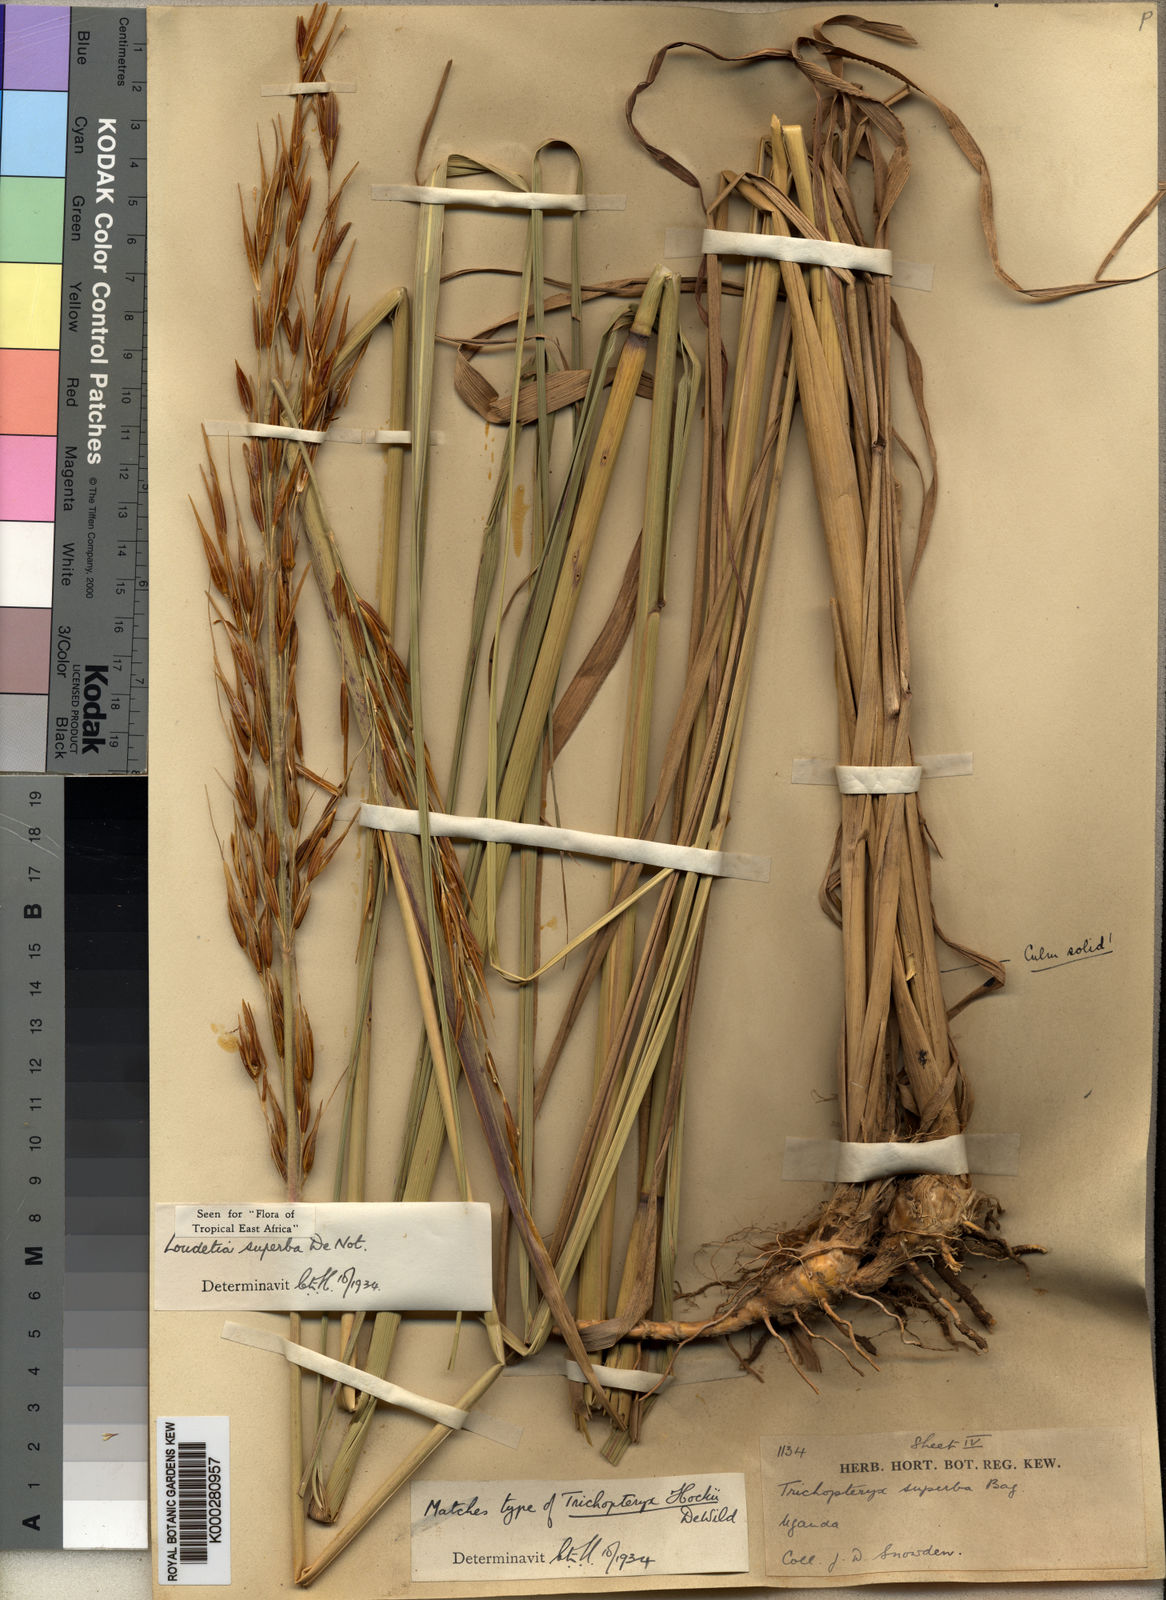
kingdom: Plantae
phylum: Tracheophyta
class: Liliopsida
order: Poales
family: Poaceae
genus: Tristachya
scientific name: Tristachya superba
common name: Giant trident grass
